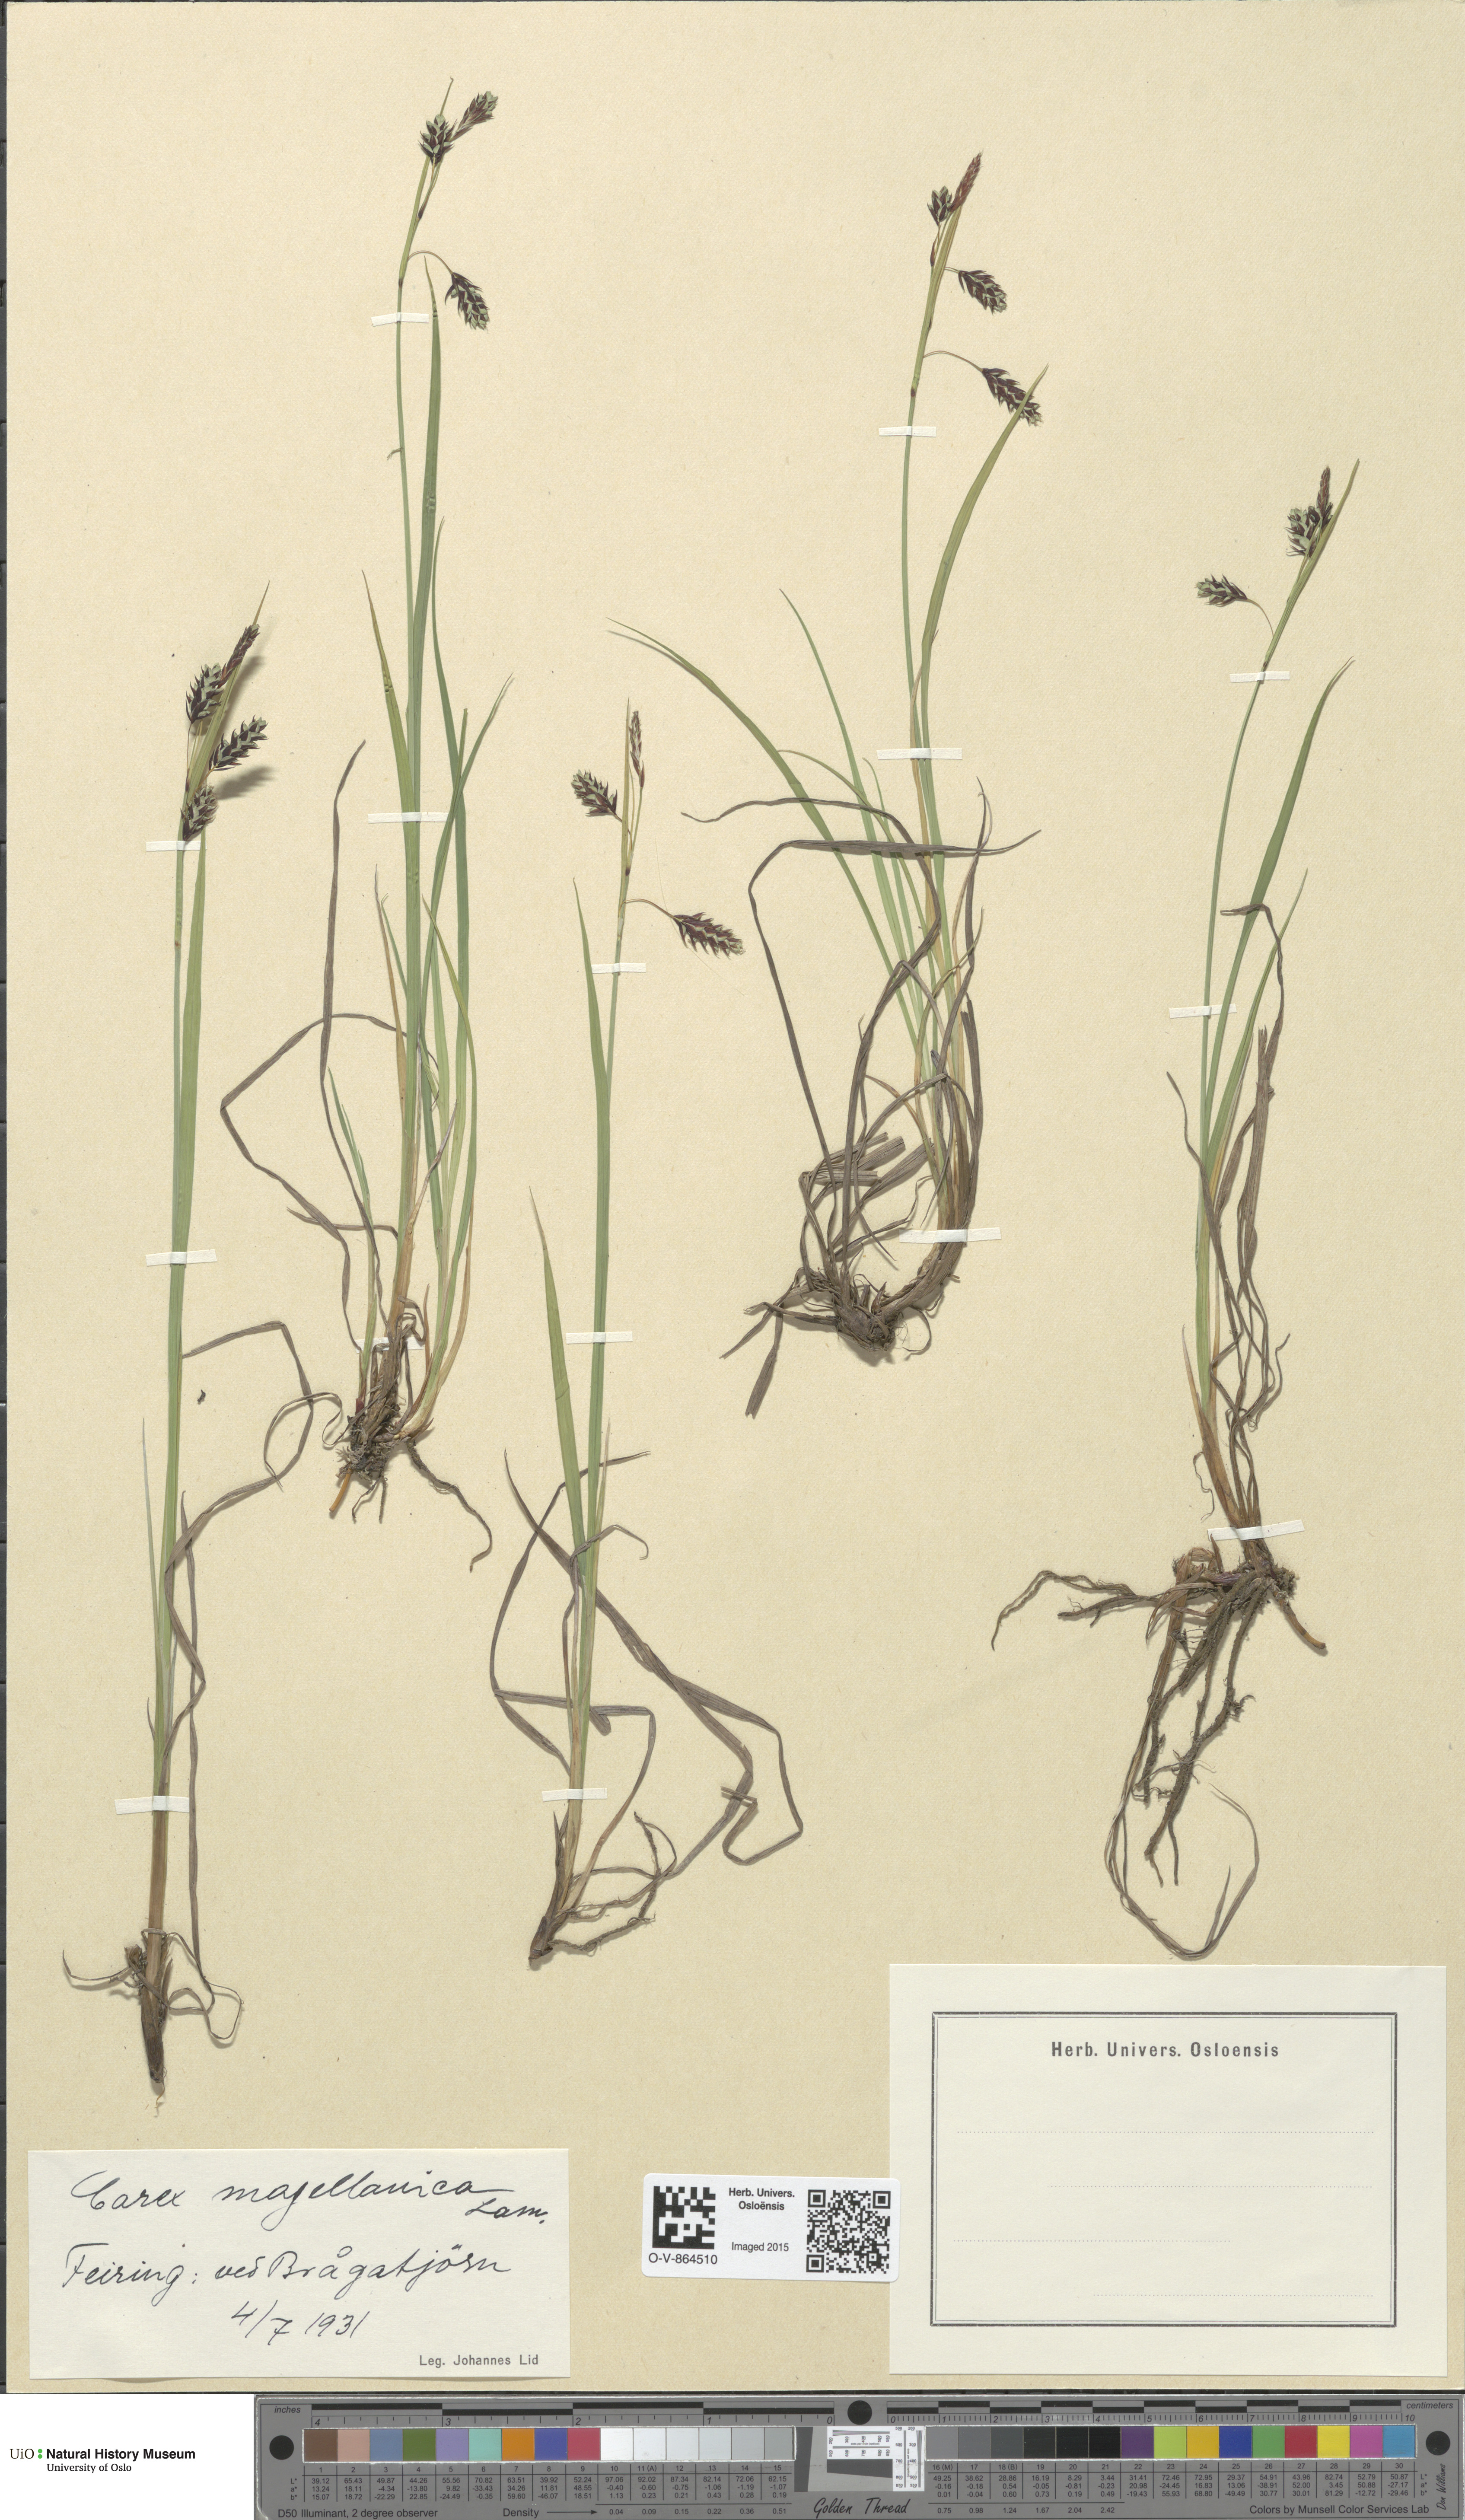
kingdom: Plantae
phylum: Tracheophyta
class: Liliopsida
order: Poales
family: Cyperaceae
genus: Carex
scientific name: Carex magellanica
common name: Bog sedge
